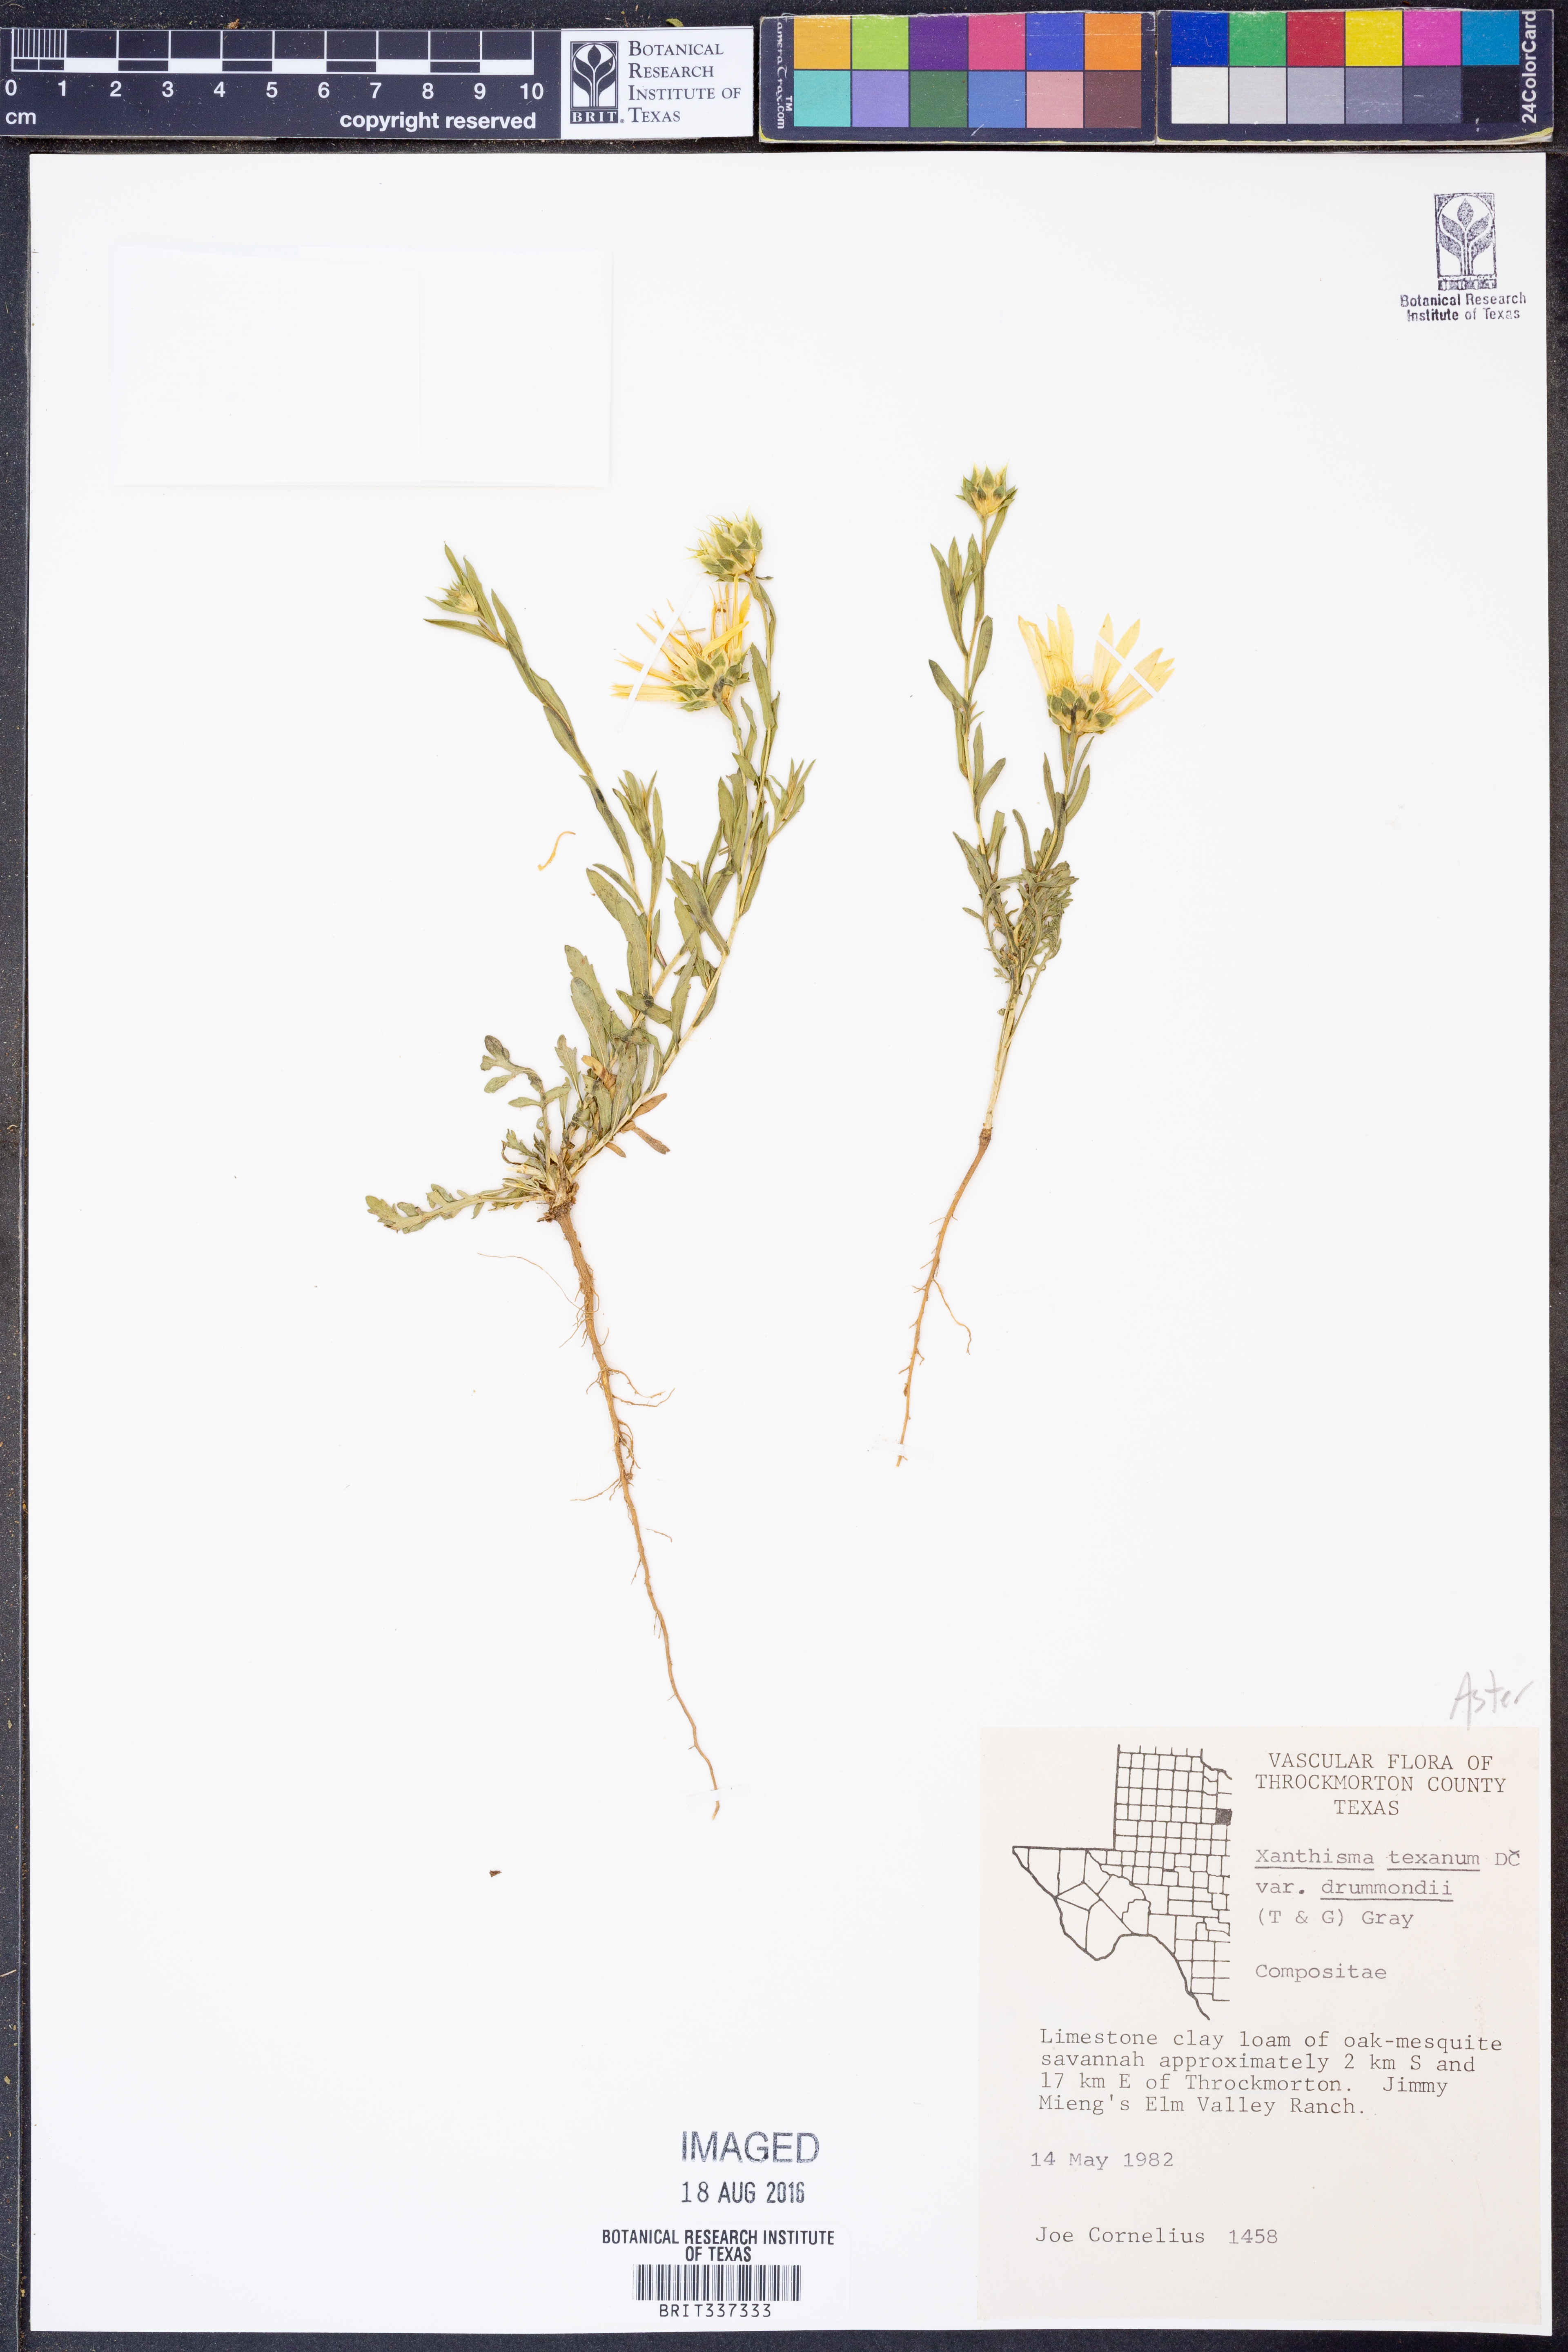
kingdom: Plantae
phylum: Tracheophyta
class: Magnoliopsida
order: Asterales
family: Asteraceae
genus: Xanthisma
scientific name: Xanthisma texanum
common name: Texas sleepy daisy
